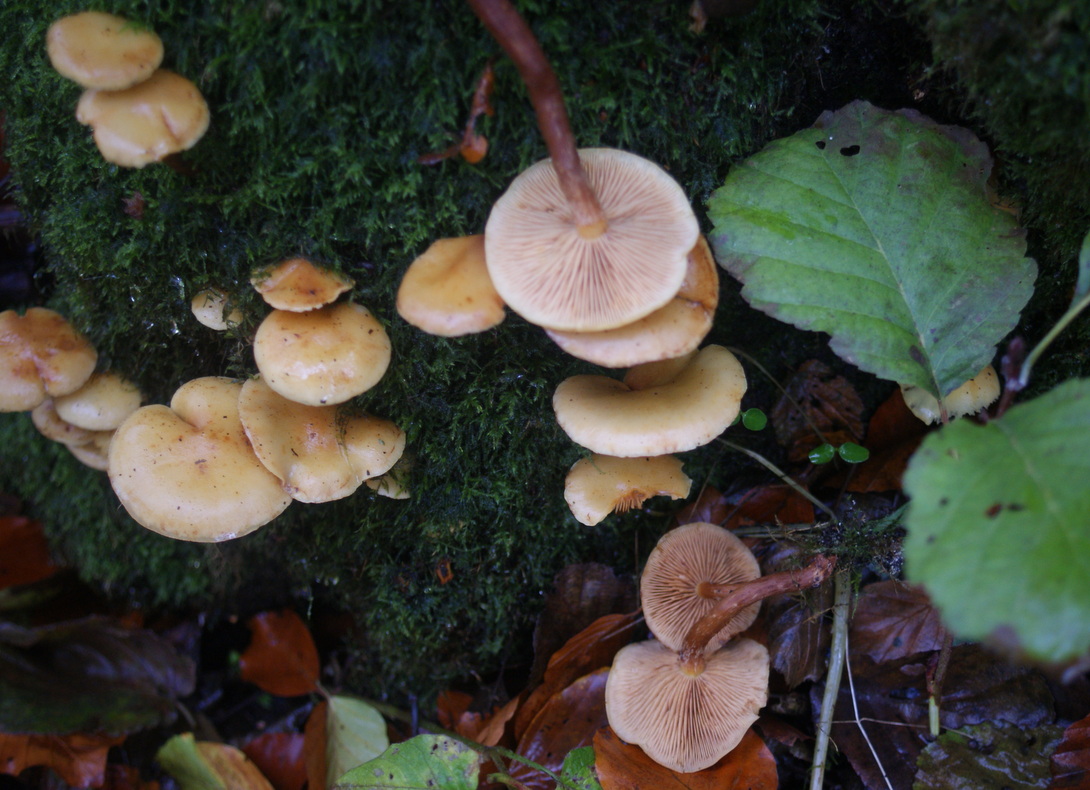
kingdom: Fungi
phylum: Basidiomycota
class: Agaricomycetes
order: Agaricales
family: Hymenogastraceae
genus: Flammula
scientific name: Flammula alnicola
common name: elle-skælhat
